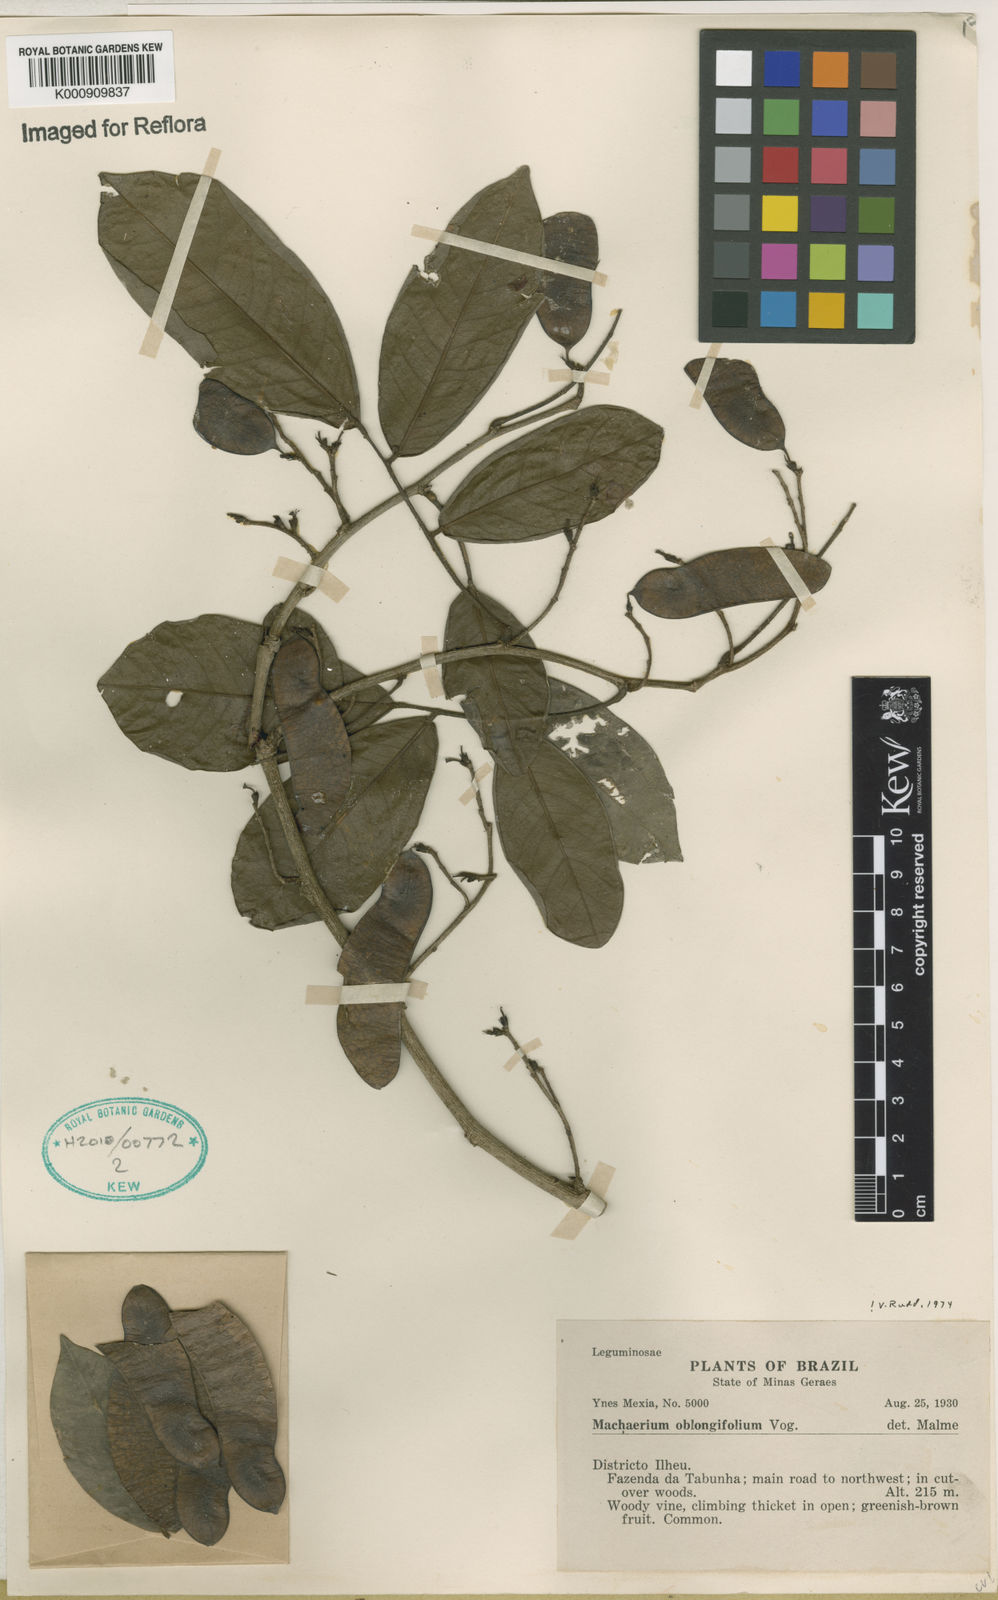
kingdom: Plantae
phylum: Tracheophyta
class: Magnoliopsida
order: Fabales
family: Fabaceae
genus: Machaerium
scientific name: Machaerium oblongifolium
